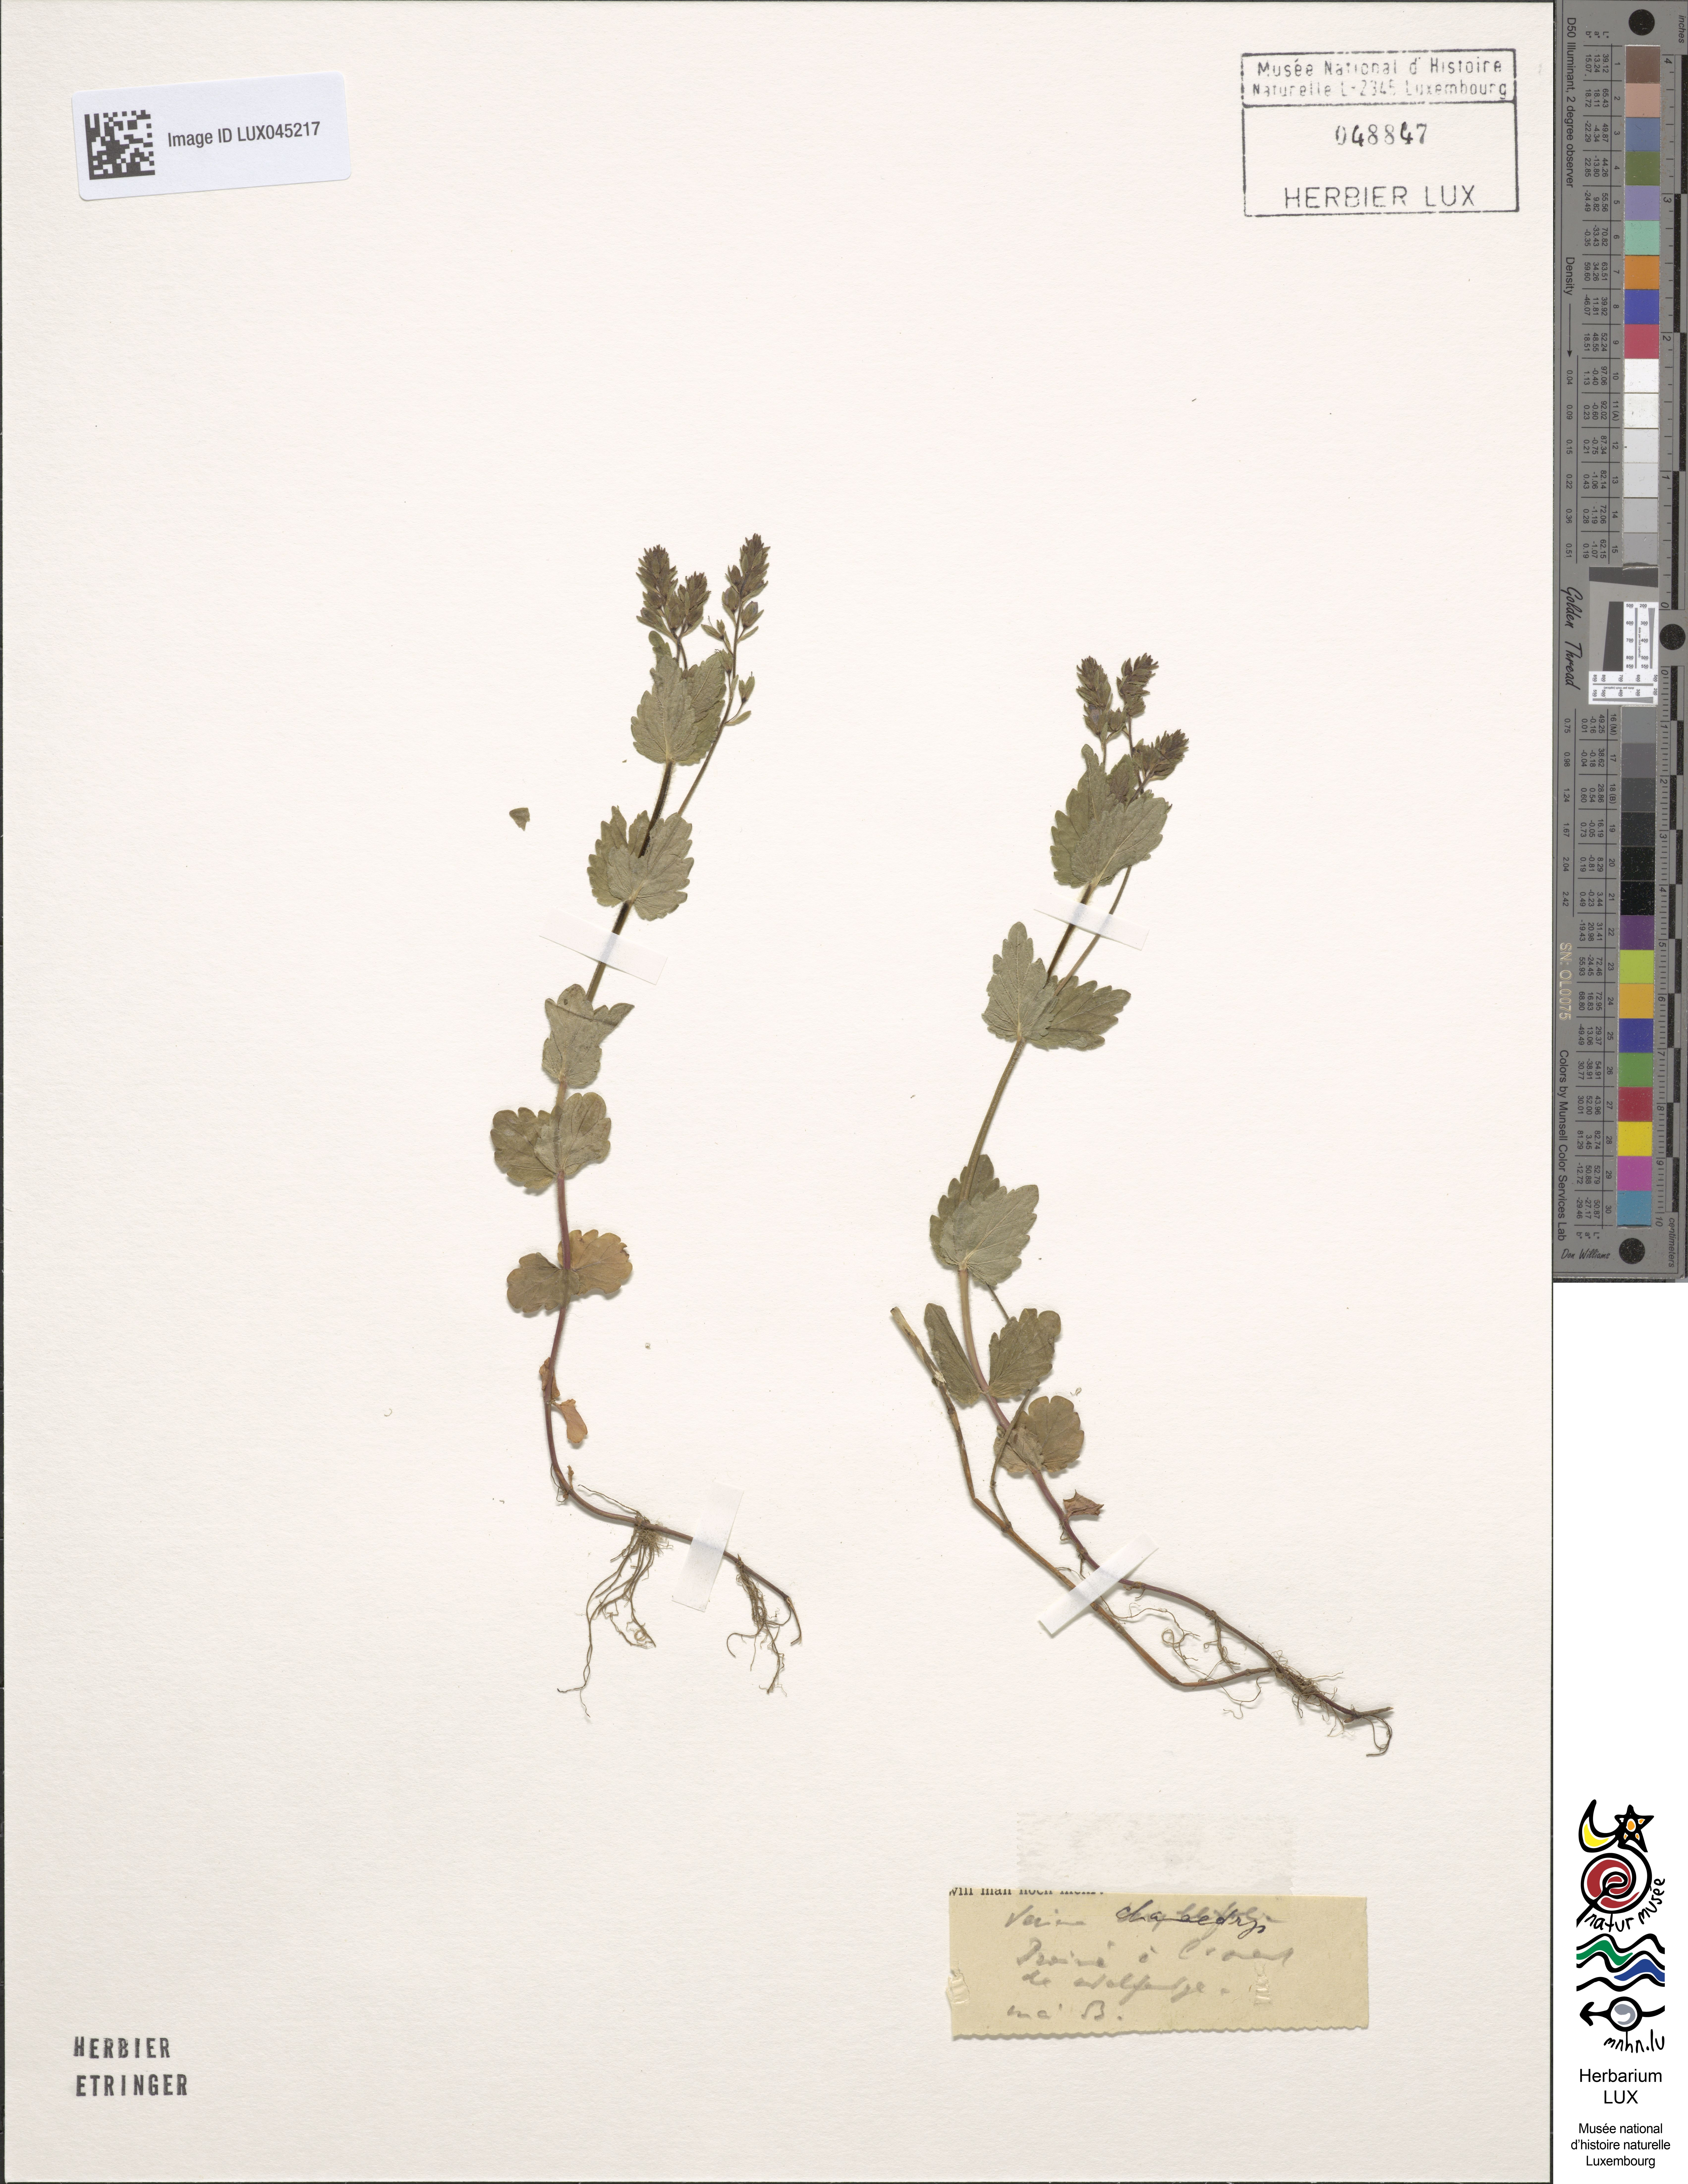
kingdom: Plantae
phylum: Tracheophyta
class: Magnoliopsida
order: Lamiales
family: Plantaginaceae
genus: Veronica
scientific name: Veronica chamaedrys
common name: Germander speedwell
